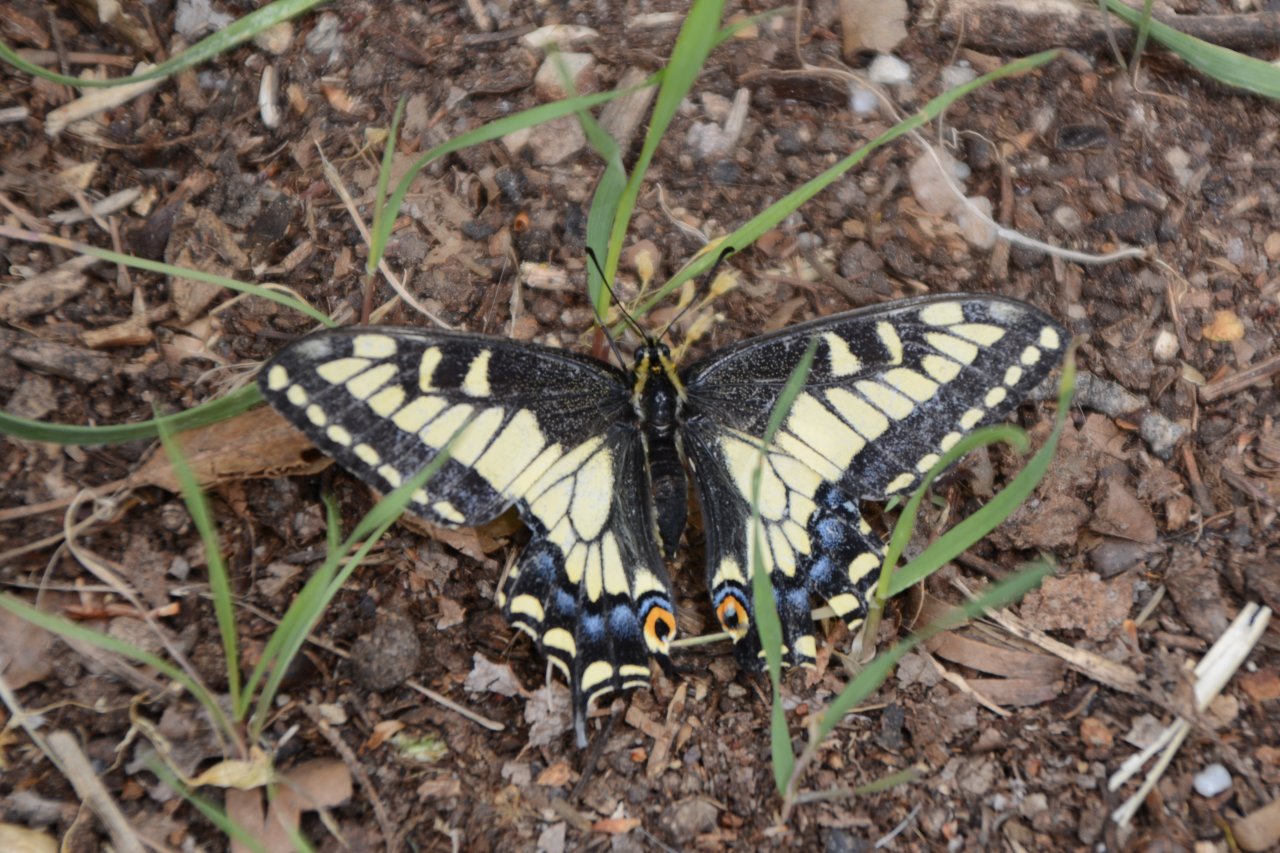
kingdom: Animalia
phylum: Arthropoda
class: Insecta
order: Lepidoptera
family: Papilionidae
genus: Papilio
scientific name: Papilio zelicaon
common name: Anise Swallowtail
